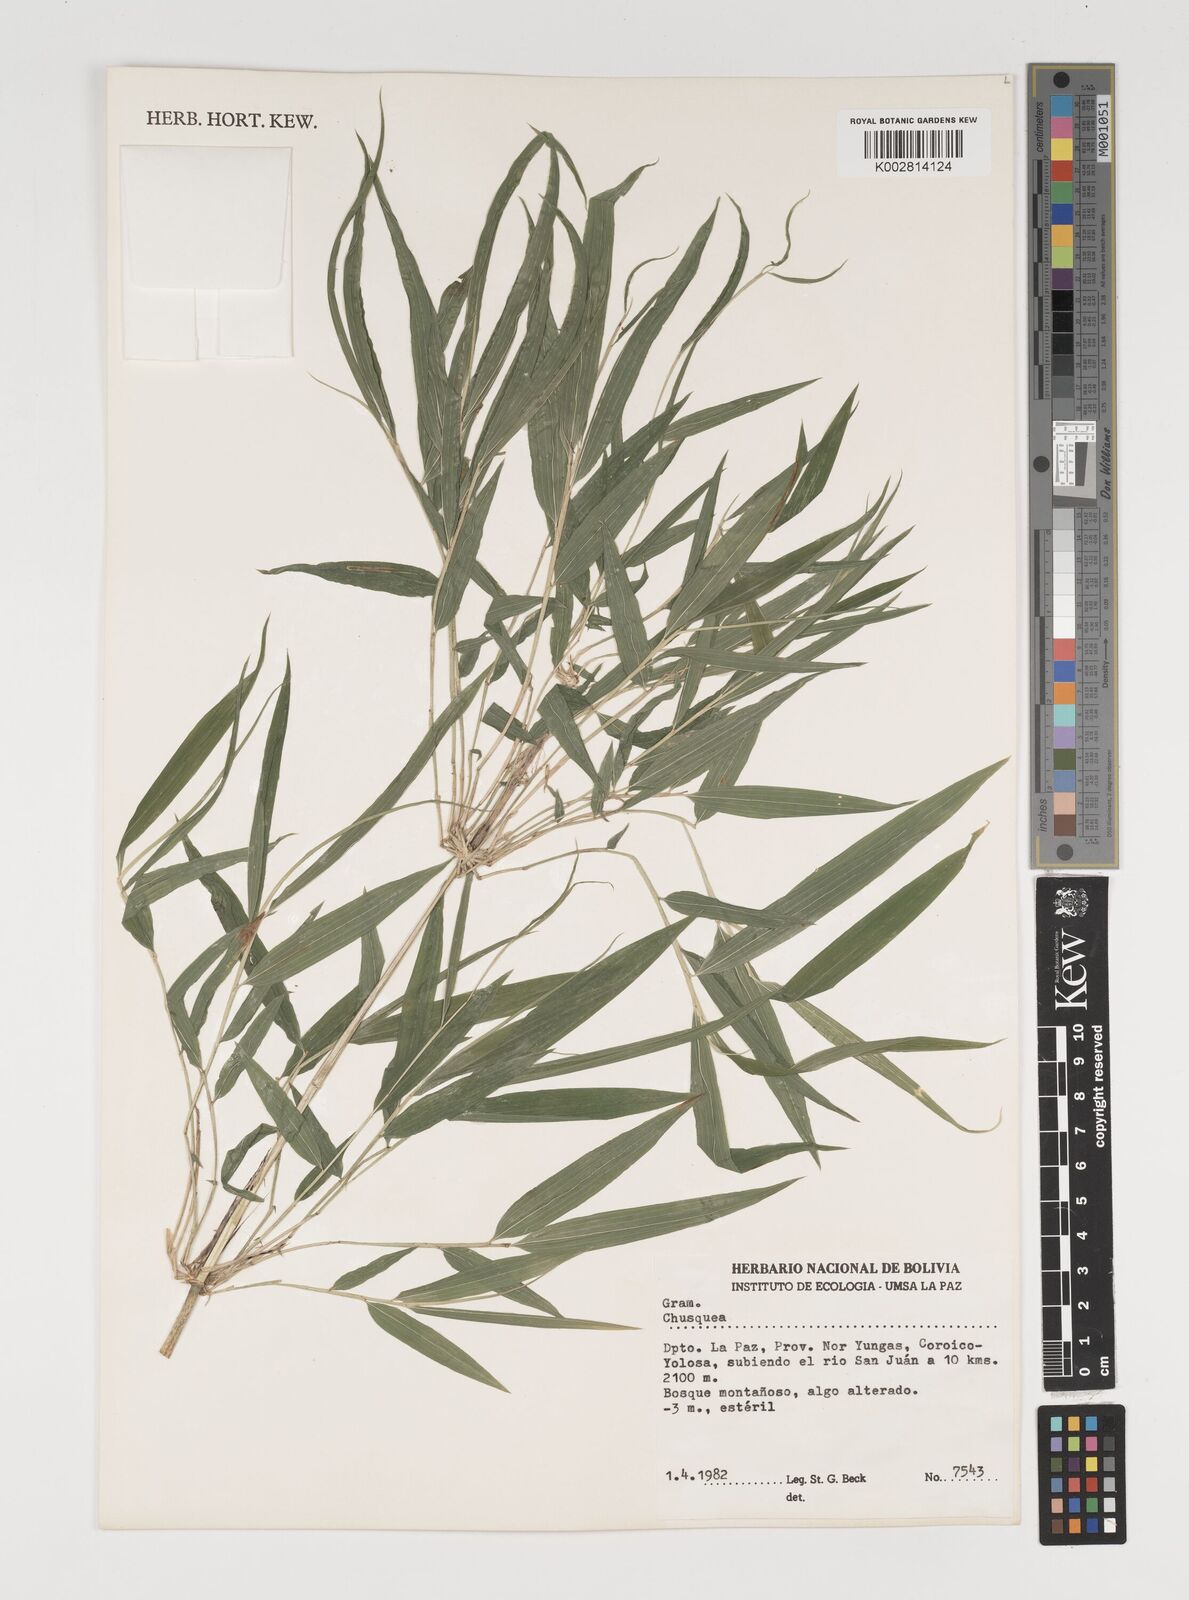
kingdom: Plantae
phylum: Tracheophyta
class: Liliopsida
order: Poales
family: Poaceae
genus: Chusquea
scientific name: Chusquea
